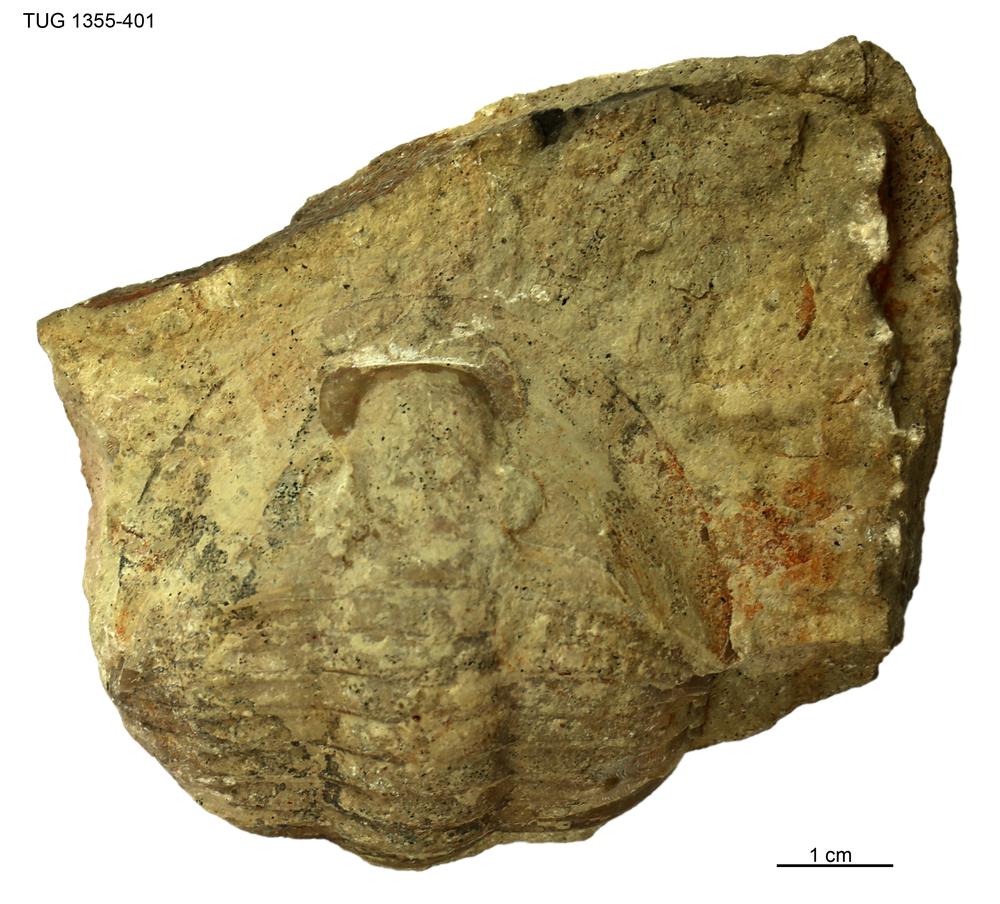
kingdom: Animalia
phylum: Arthropoda
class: Trilobita
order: Asaphida
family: Asaphidae
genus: Megistaspis
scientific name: Megistaspis
